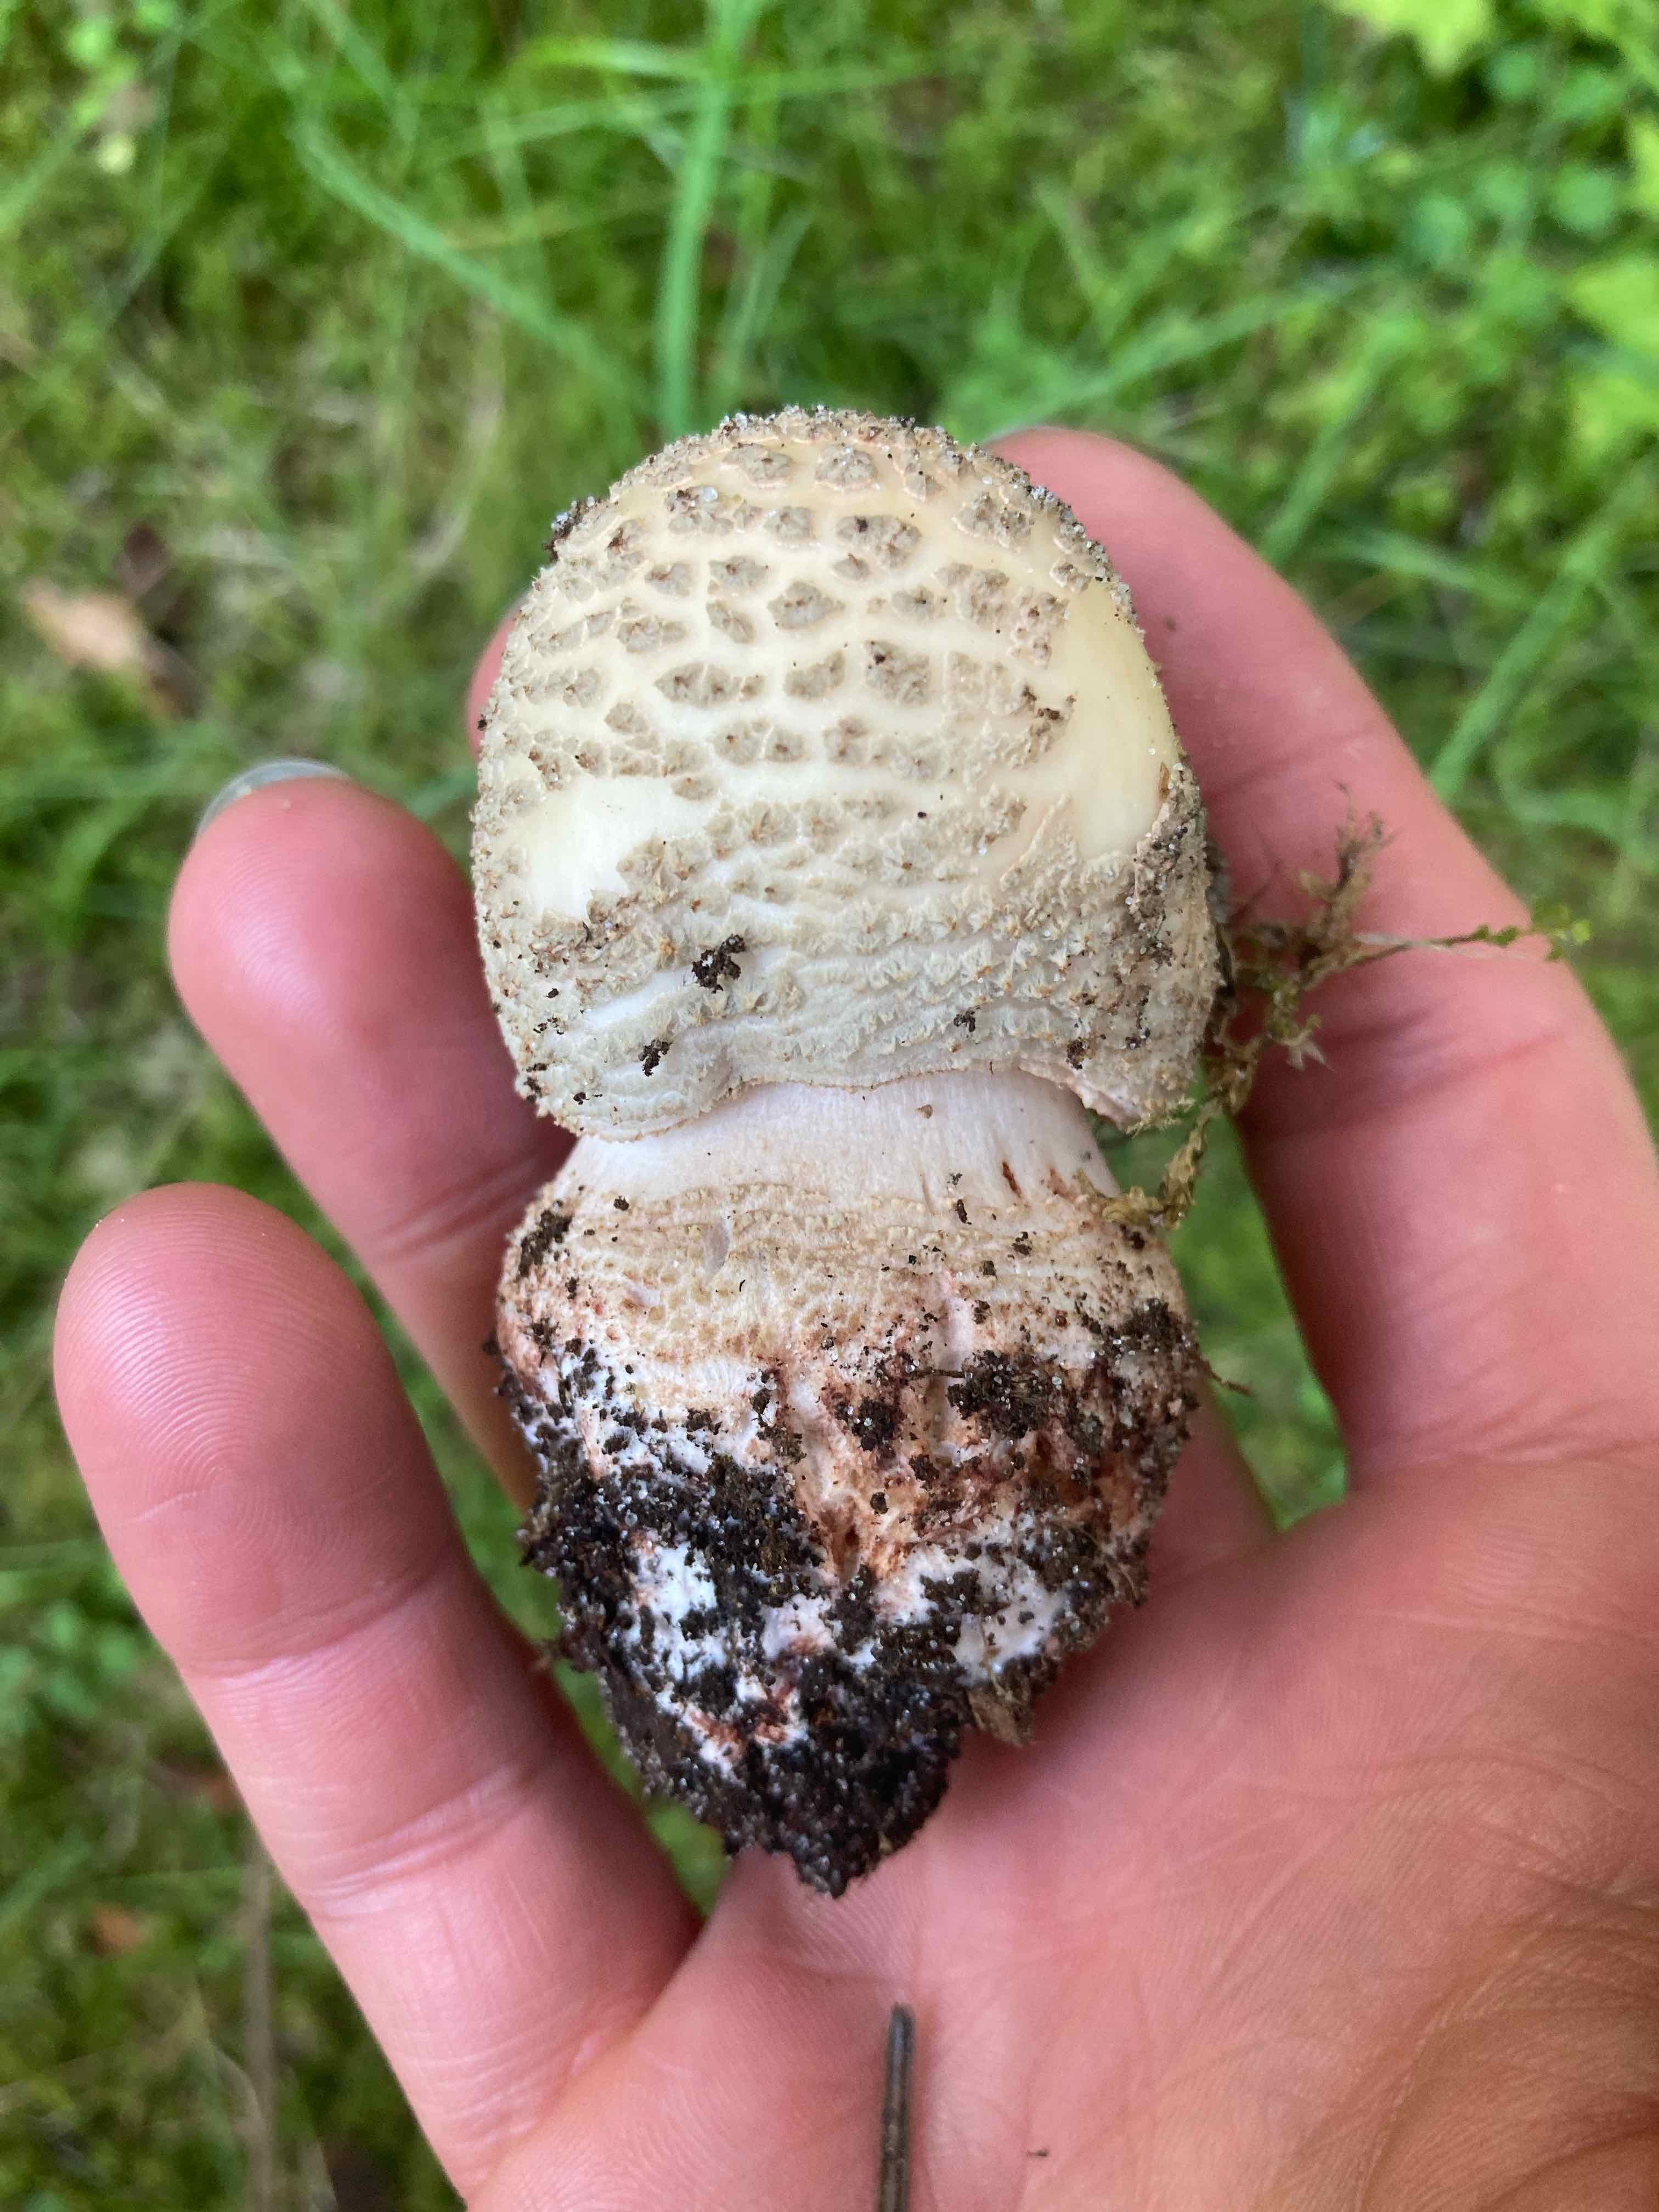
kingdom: Fungi
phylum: Basidiomycota
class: Agaricomycetes
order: Agaricales
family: Amanitaceae
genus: Amanita
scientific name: Amanita rubescens
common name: rødmende fluesvamp
